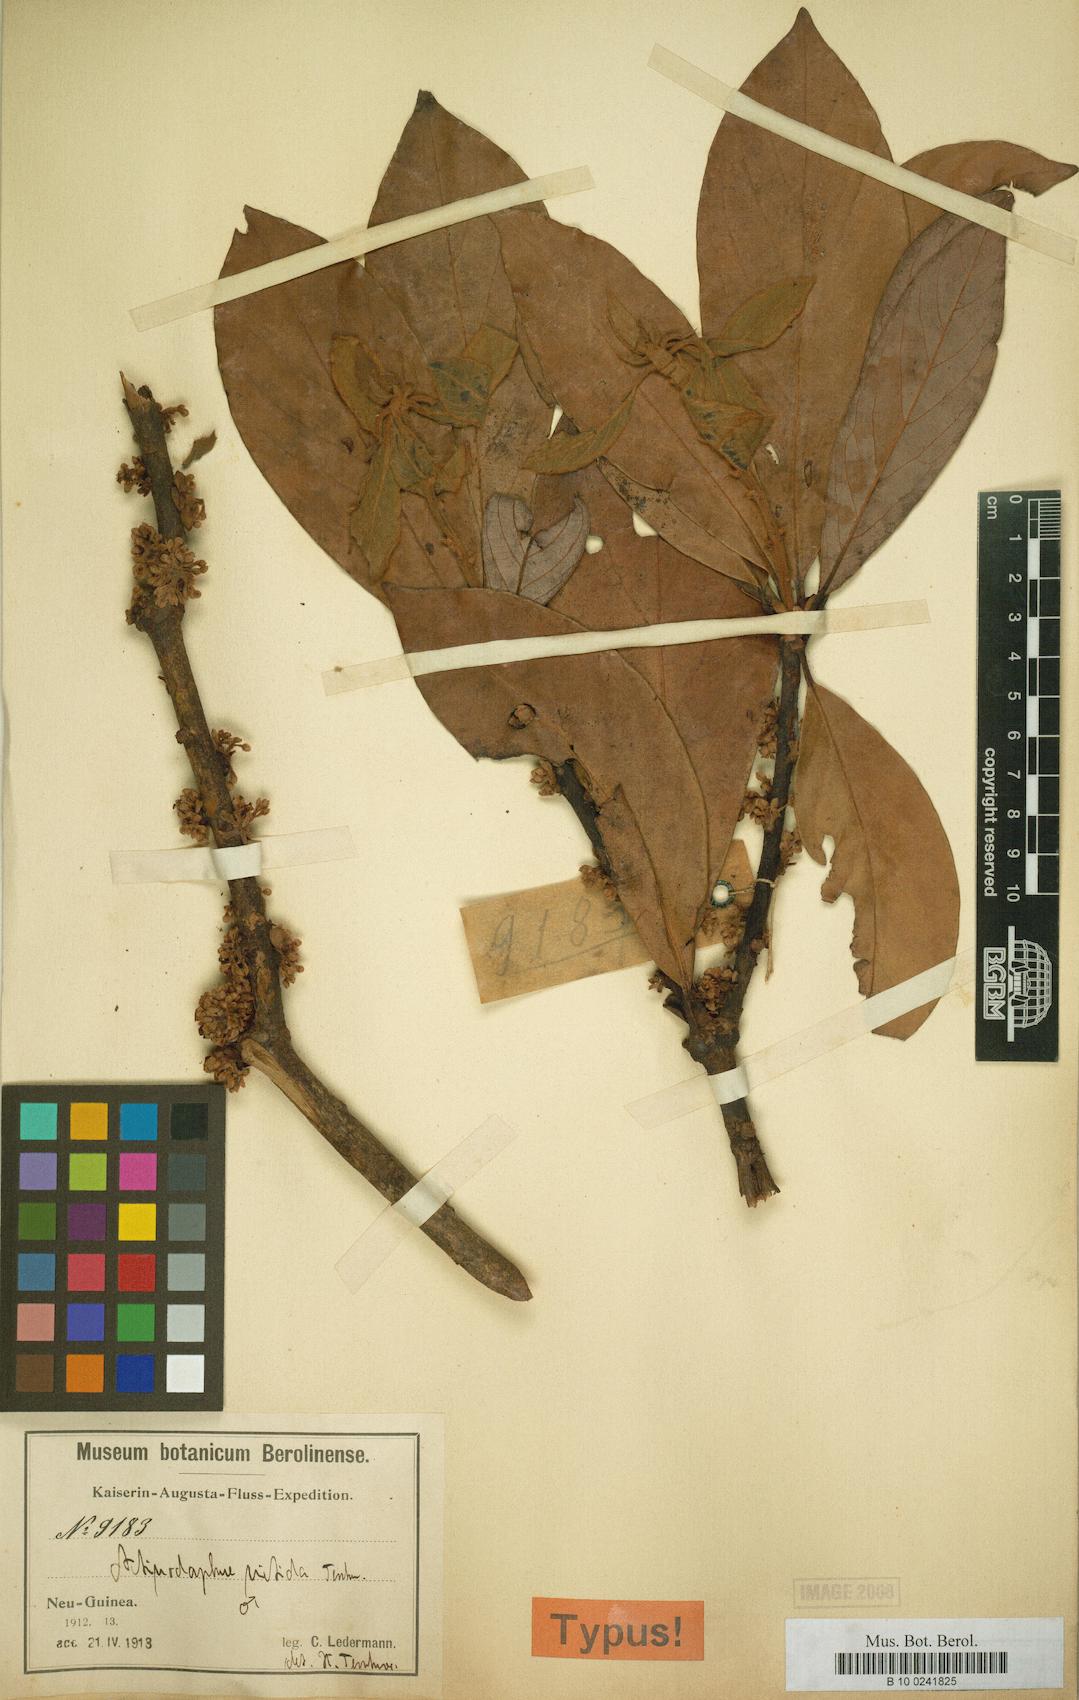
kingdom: Plantae
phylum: Tracheophyta
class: Magnoliopsida
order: Laurales
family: Lauraceae
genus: Actinodaphne
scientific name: Actinodaphne nitida
